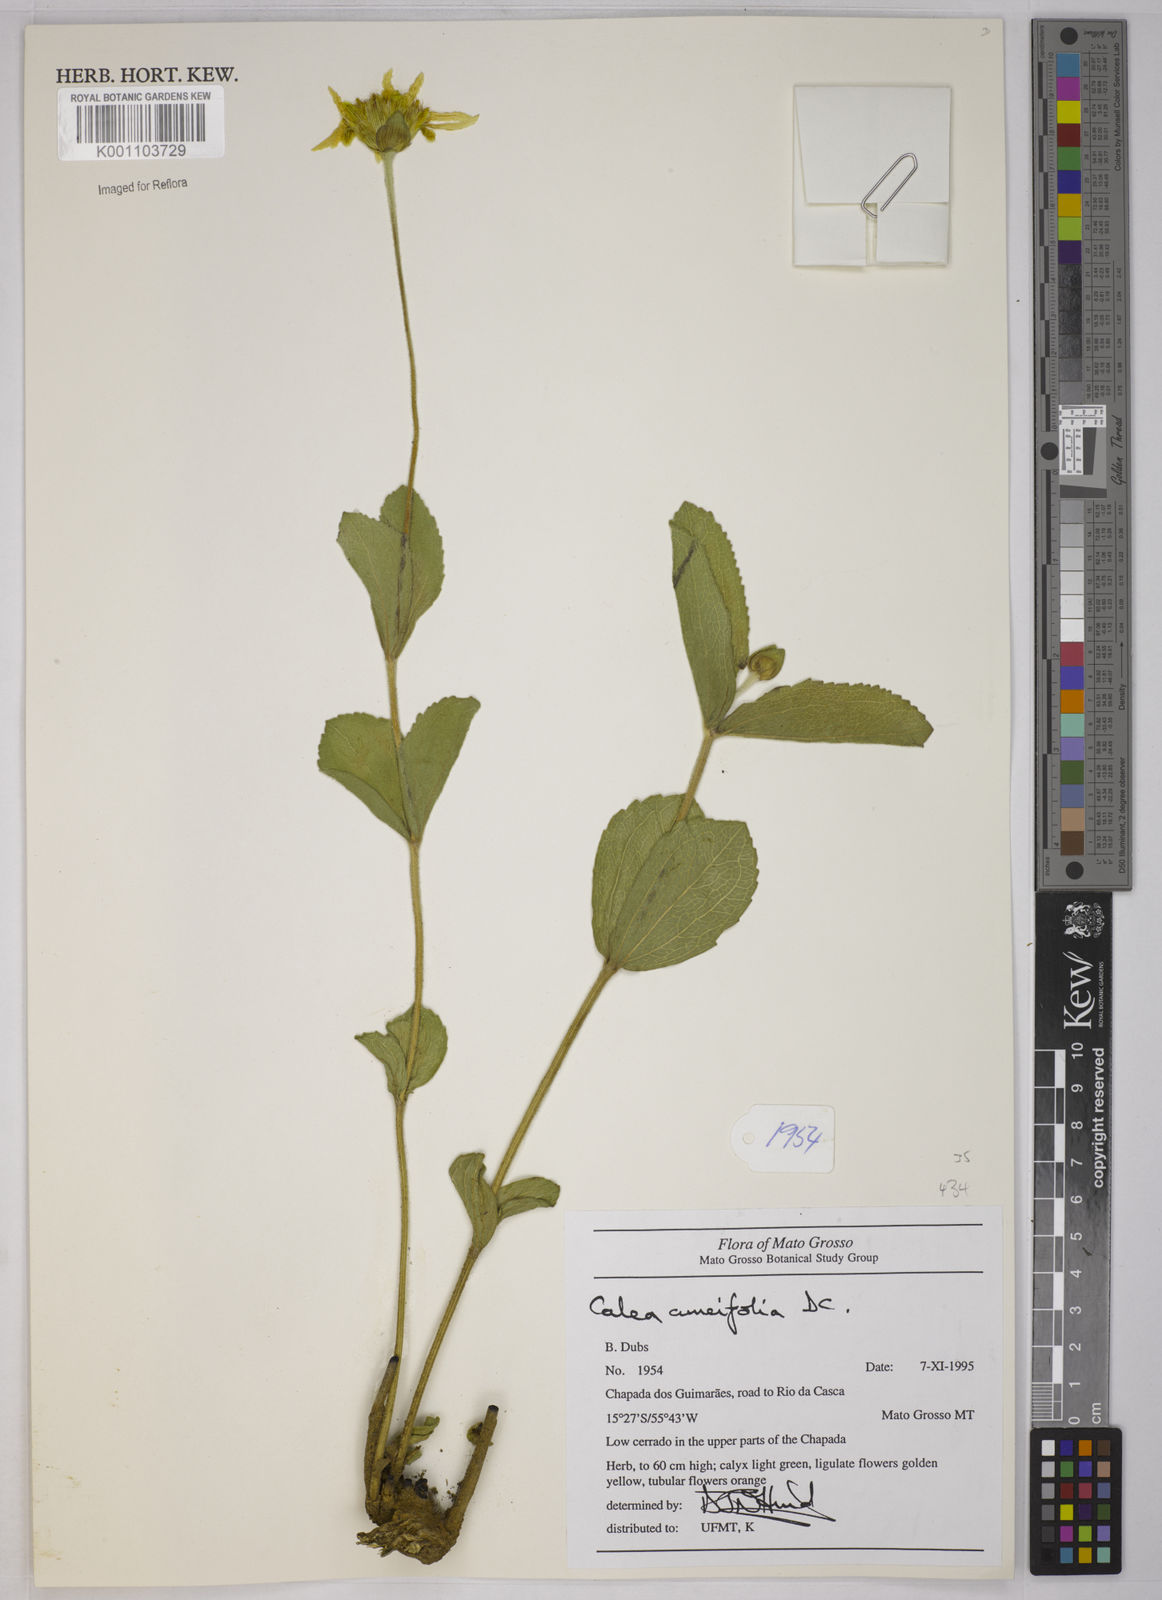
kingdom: Plantae
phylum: Tracheophyta
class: Magnoliopsida
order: Asterales
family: Asteraceae
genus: Calea
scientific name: Calea cuneifolia
